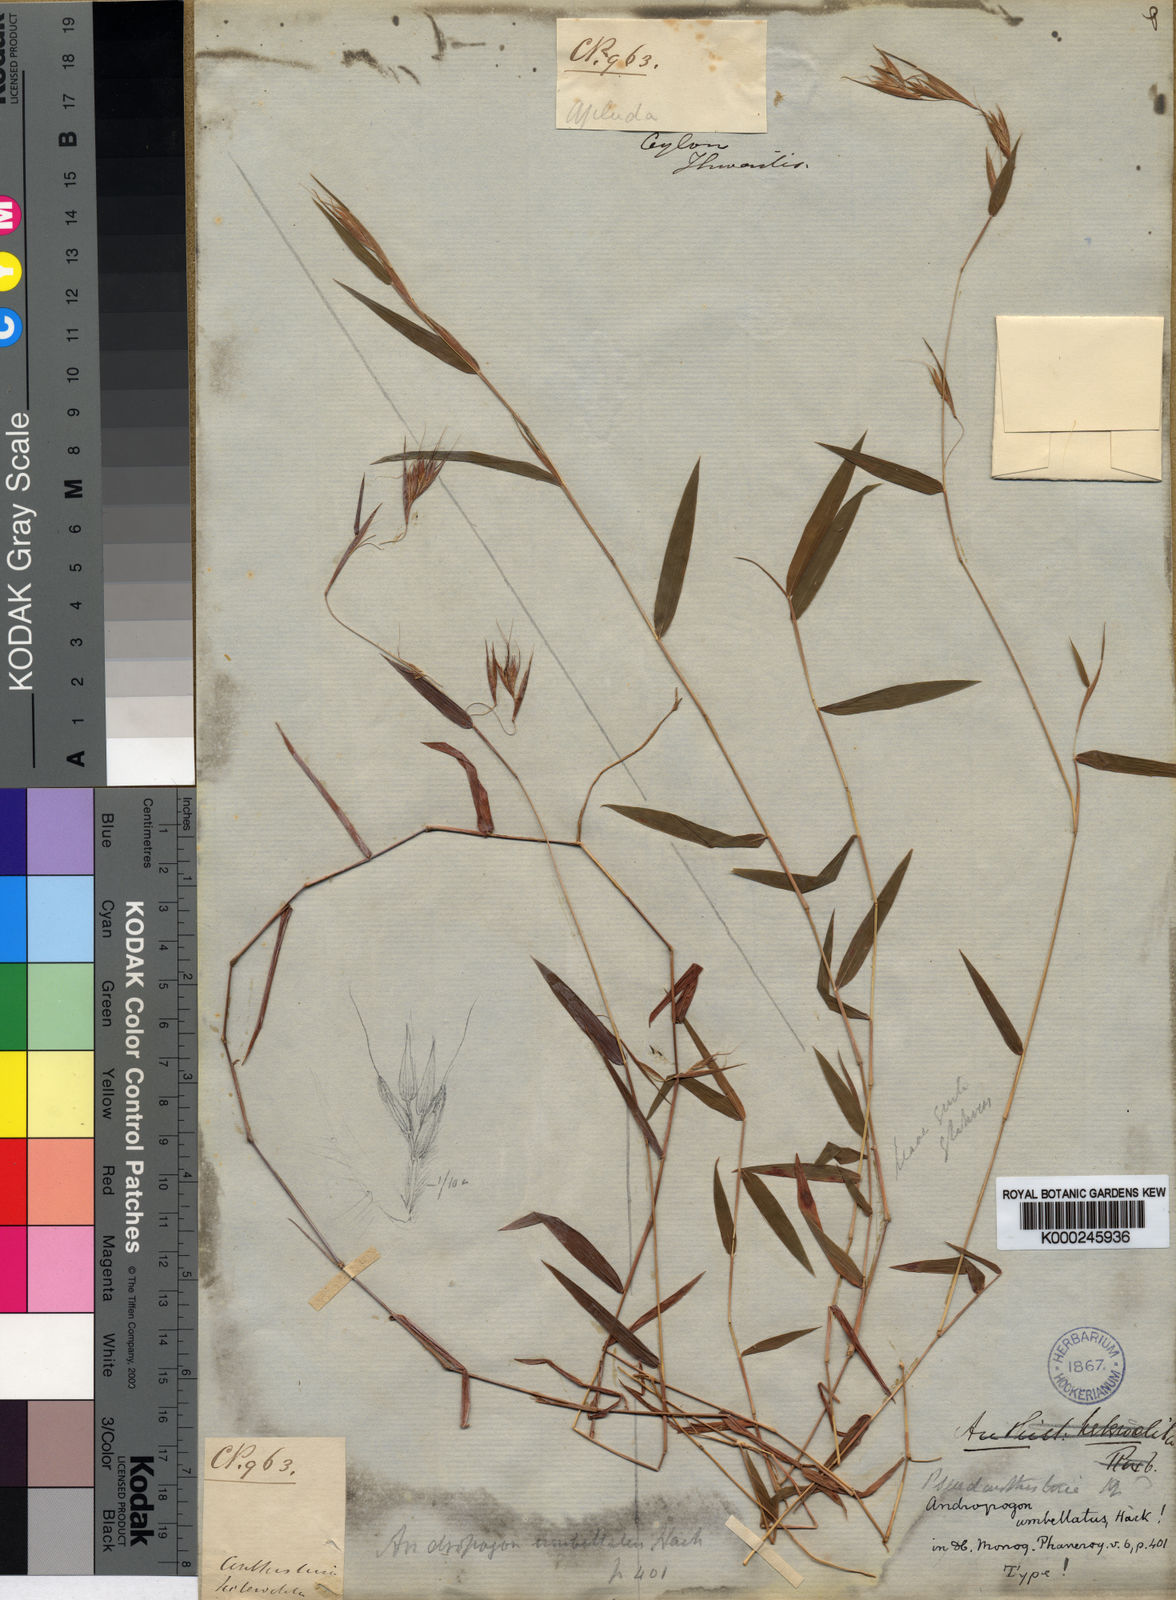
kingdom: Plantae
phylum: Tracheophyta
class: Liliopsida
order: Poales
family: Poaceae
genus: Pseudanthistiria
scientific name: Pseudanthistiria umbellata
